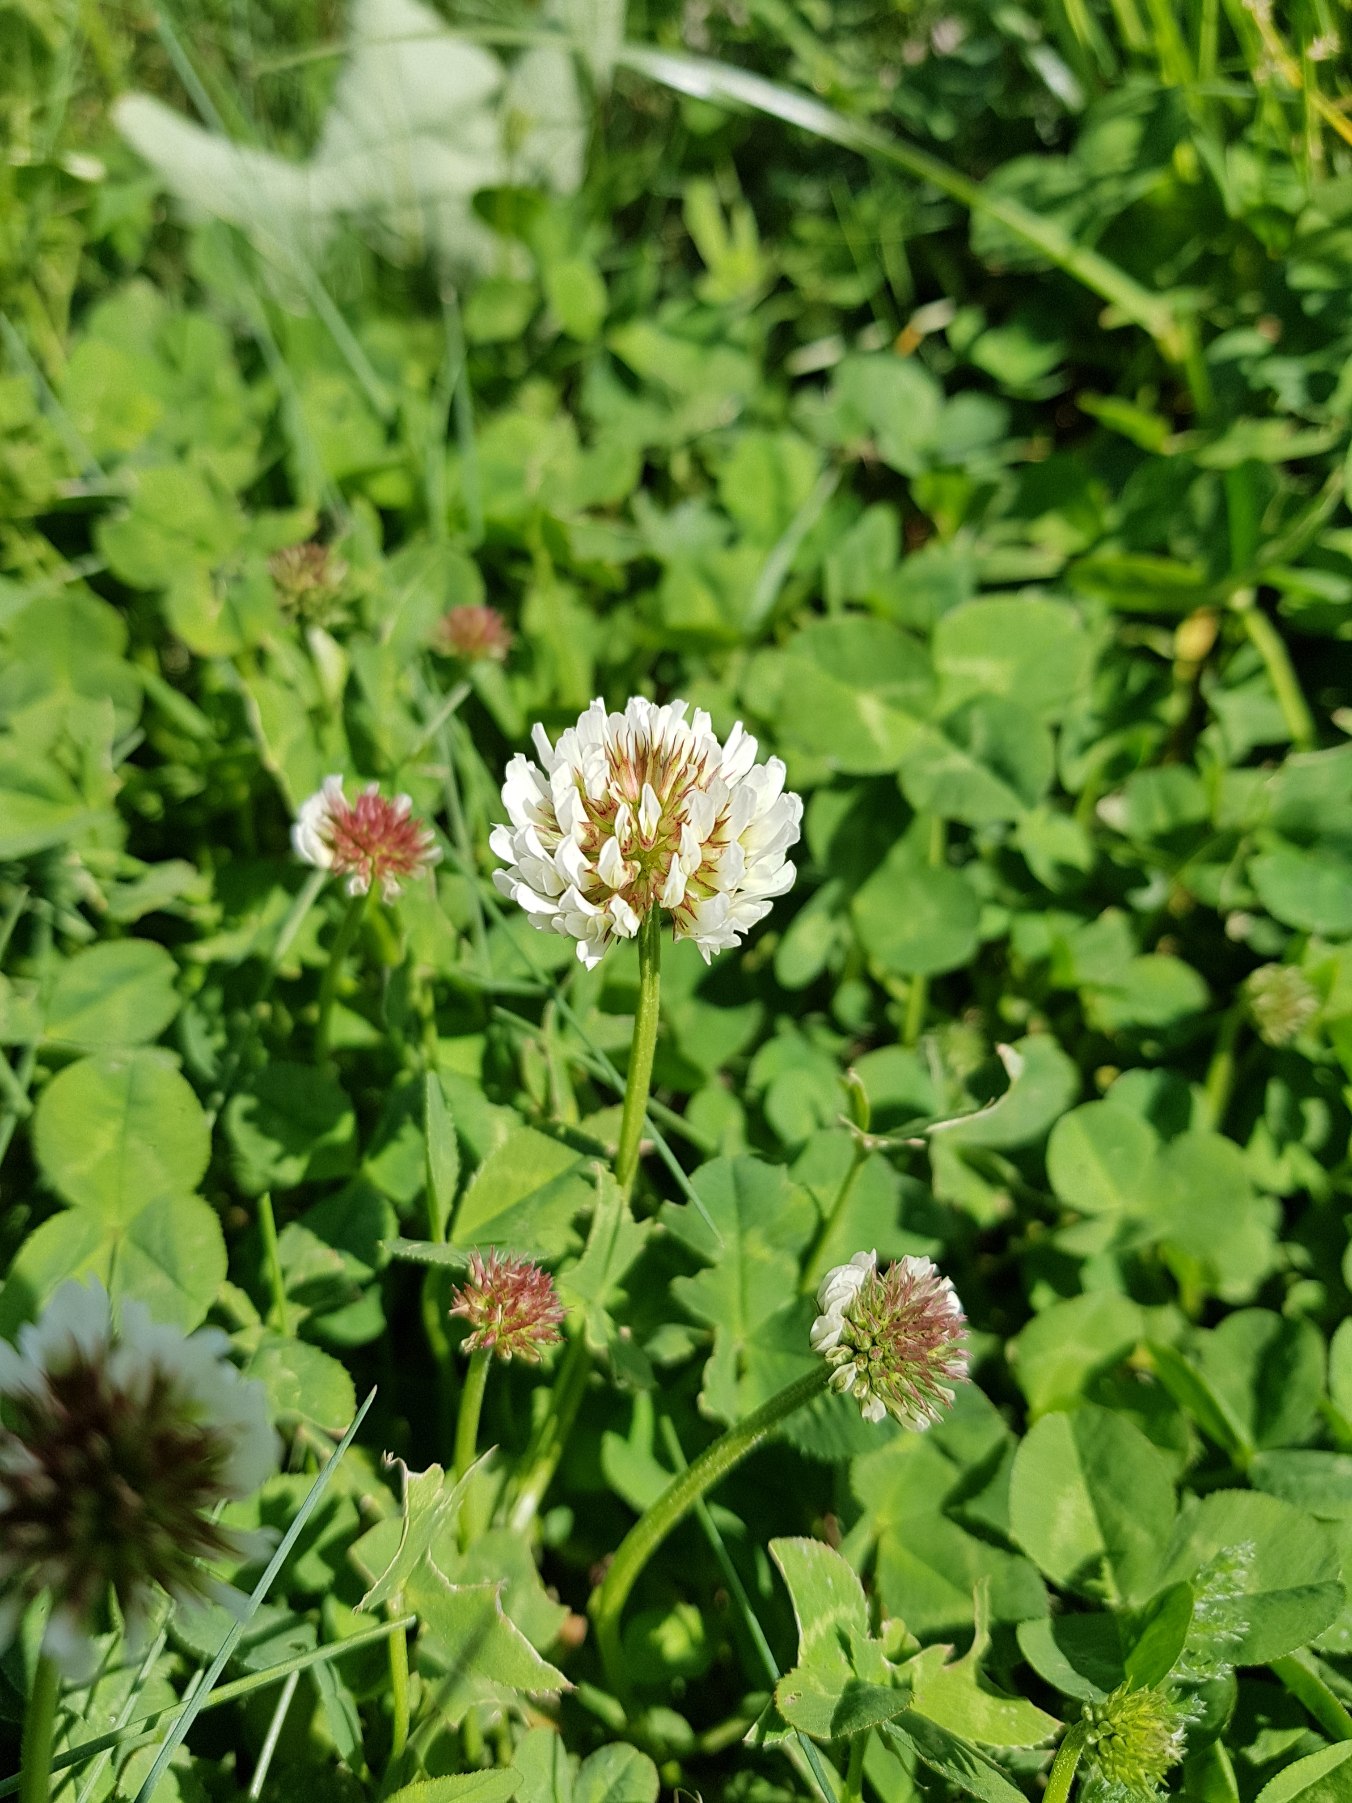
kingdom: Plantae
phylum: Tracheophyta
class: Magnoliopsida
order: Fabales
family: Fabaceae
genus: Trifolium
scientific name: Trifolium repens
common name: Hvid-kløver
